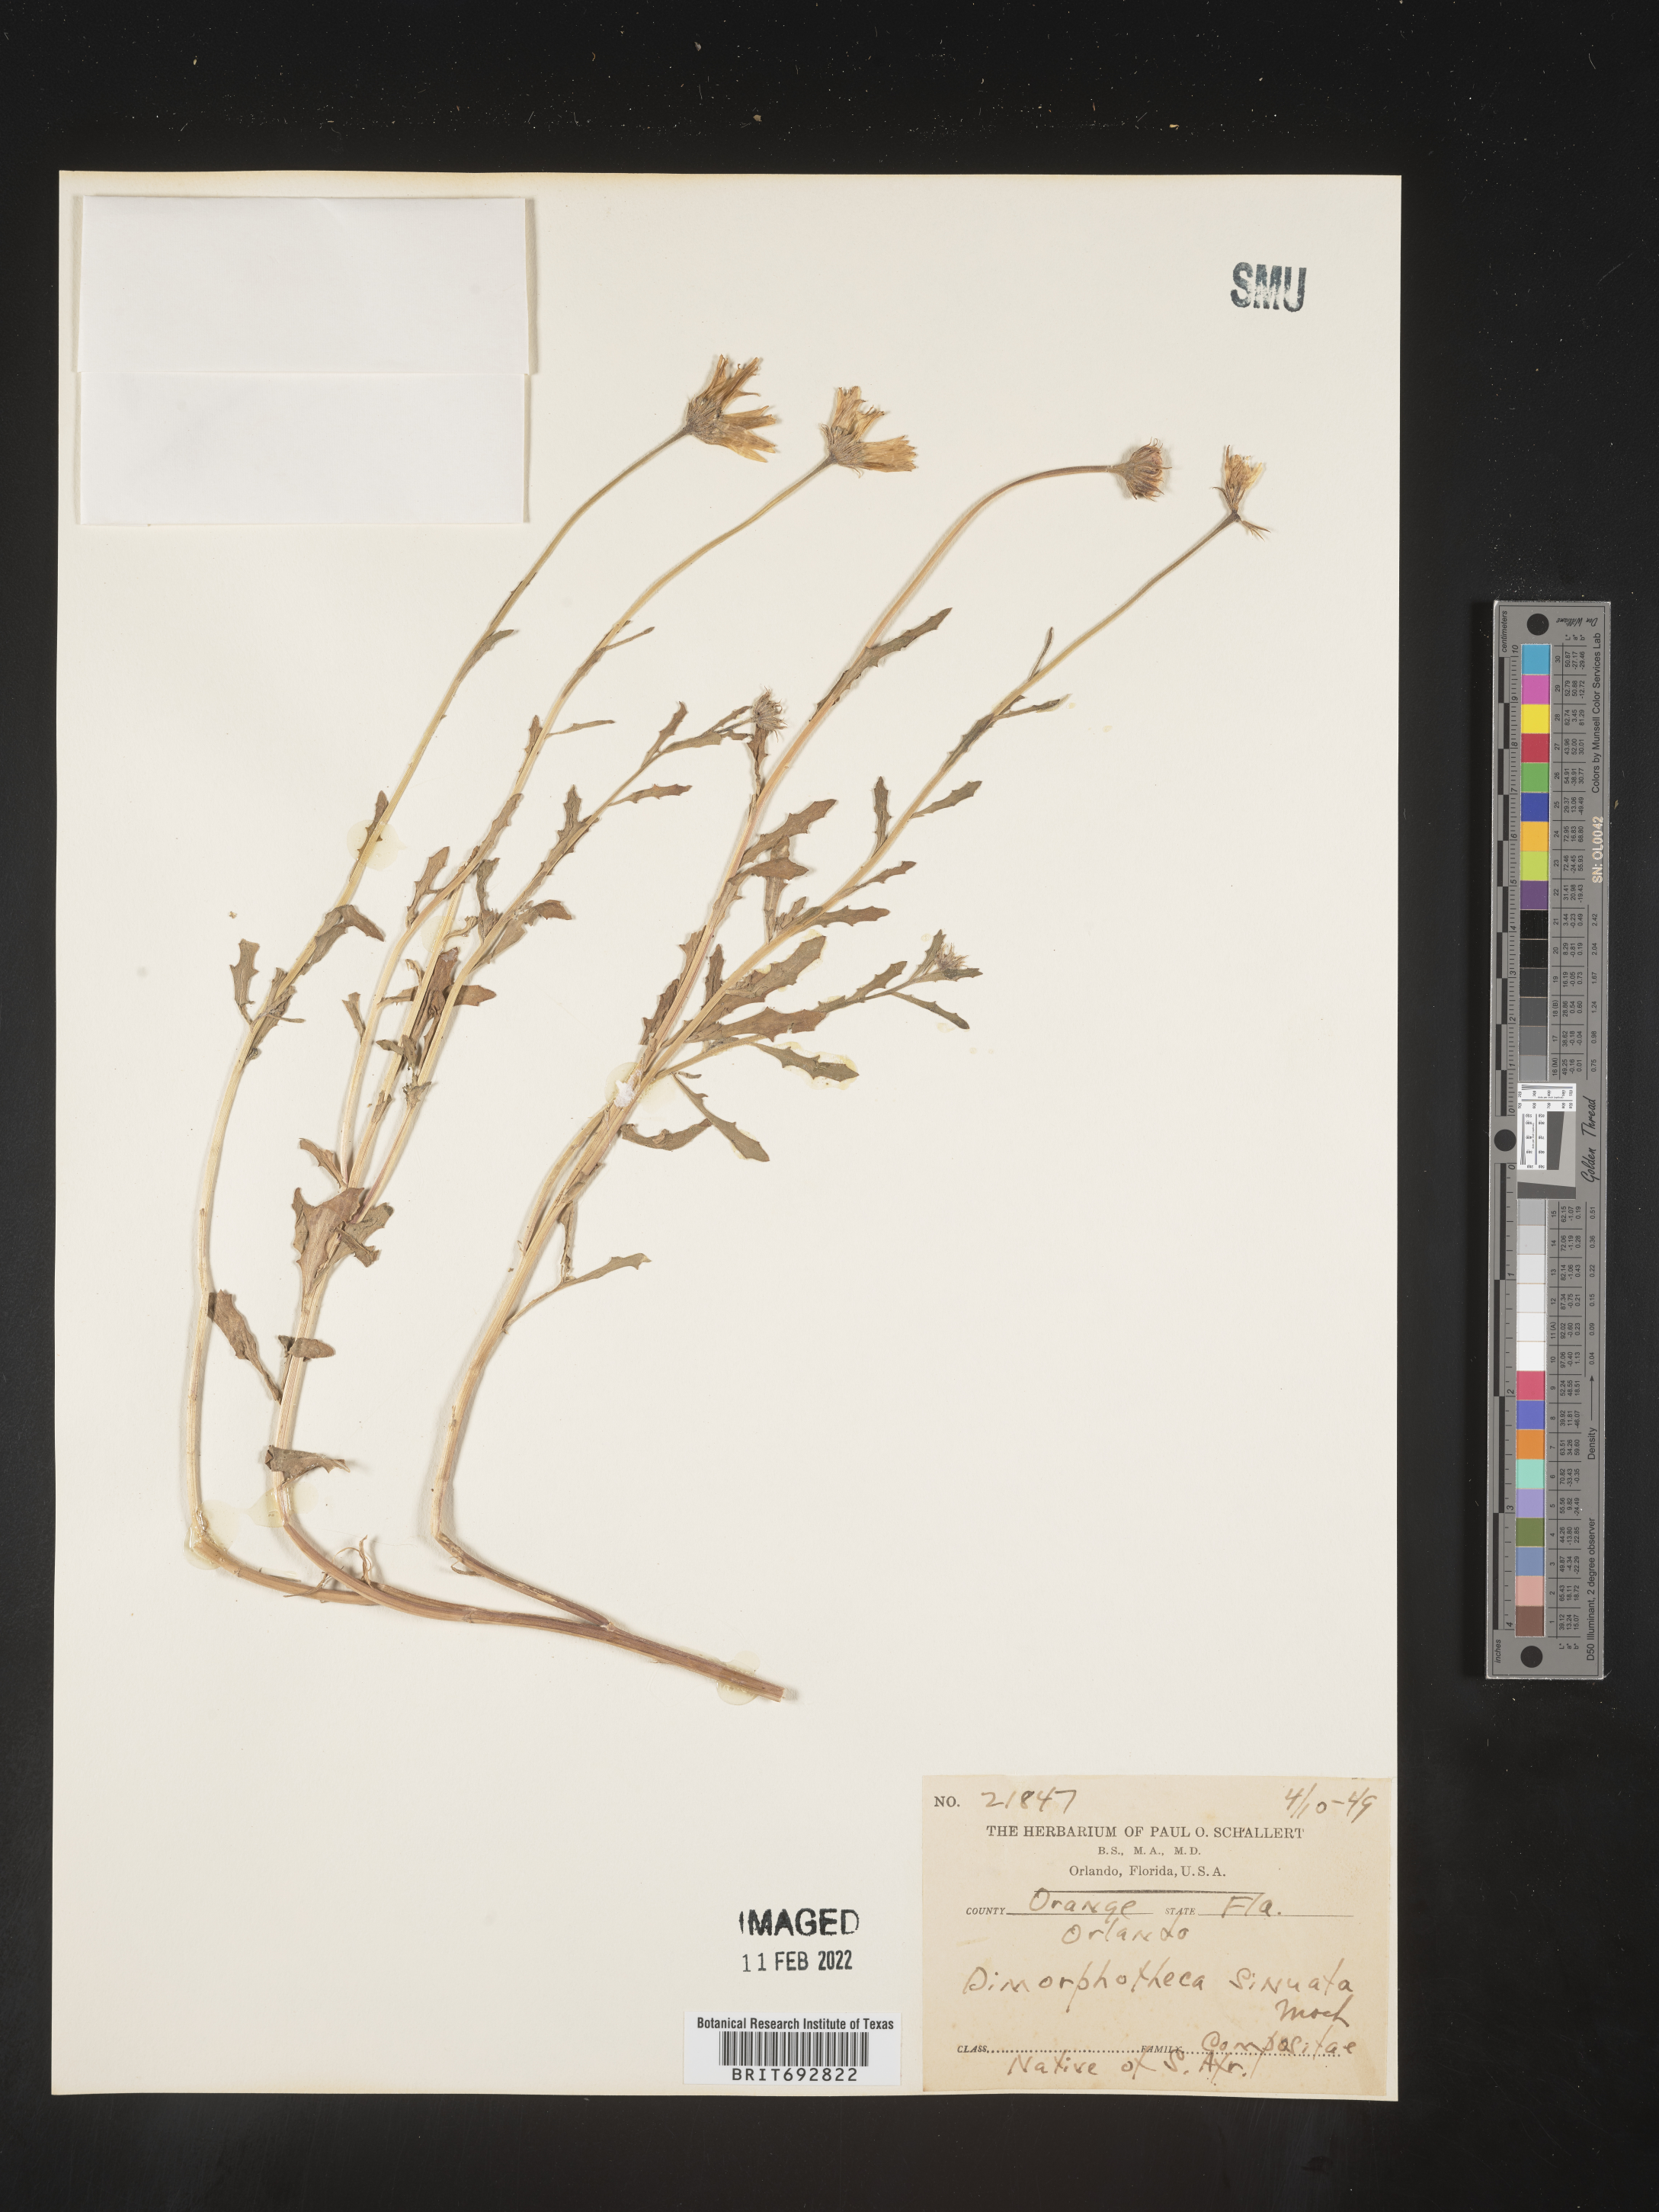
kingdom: Plantae
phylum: Tracheophyta
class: Magnoliopsida
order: Asterales
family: Asteraceae
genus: Dimorphotheca
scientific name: Dimorphotheca
